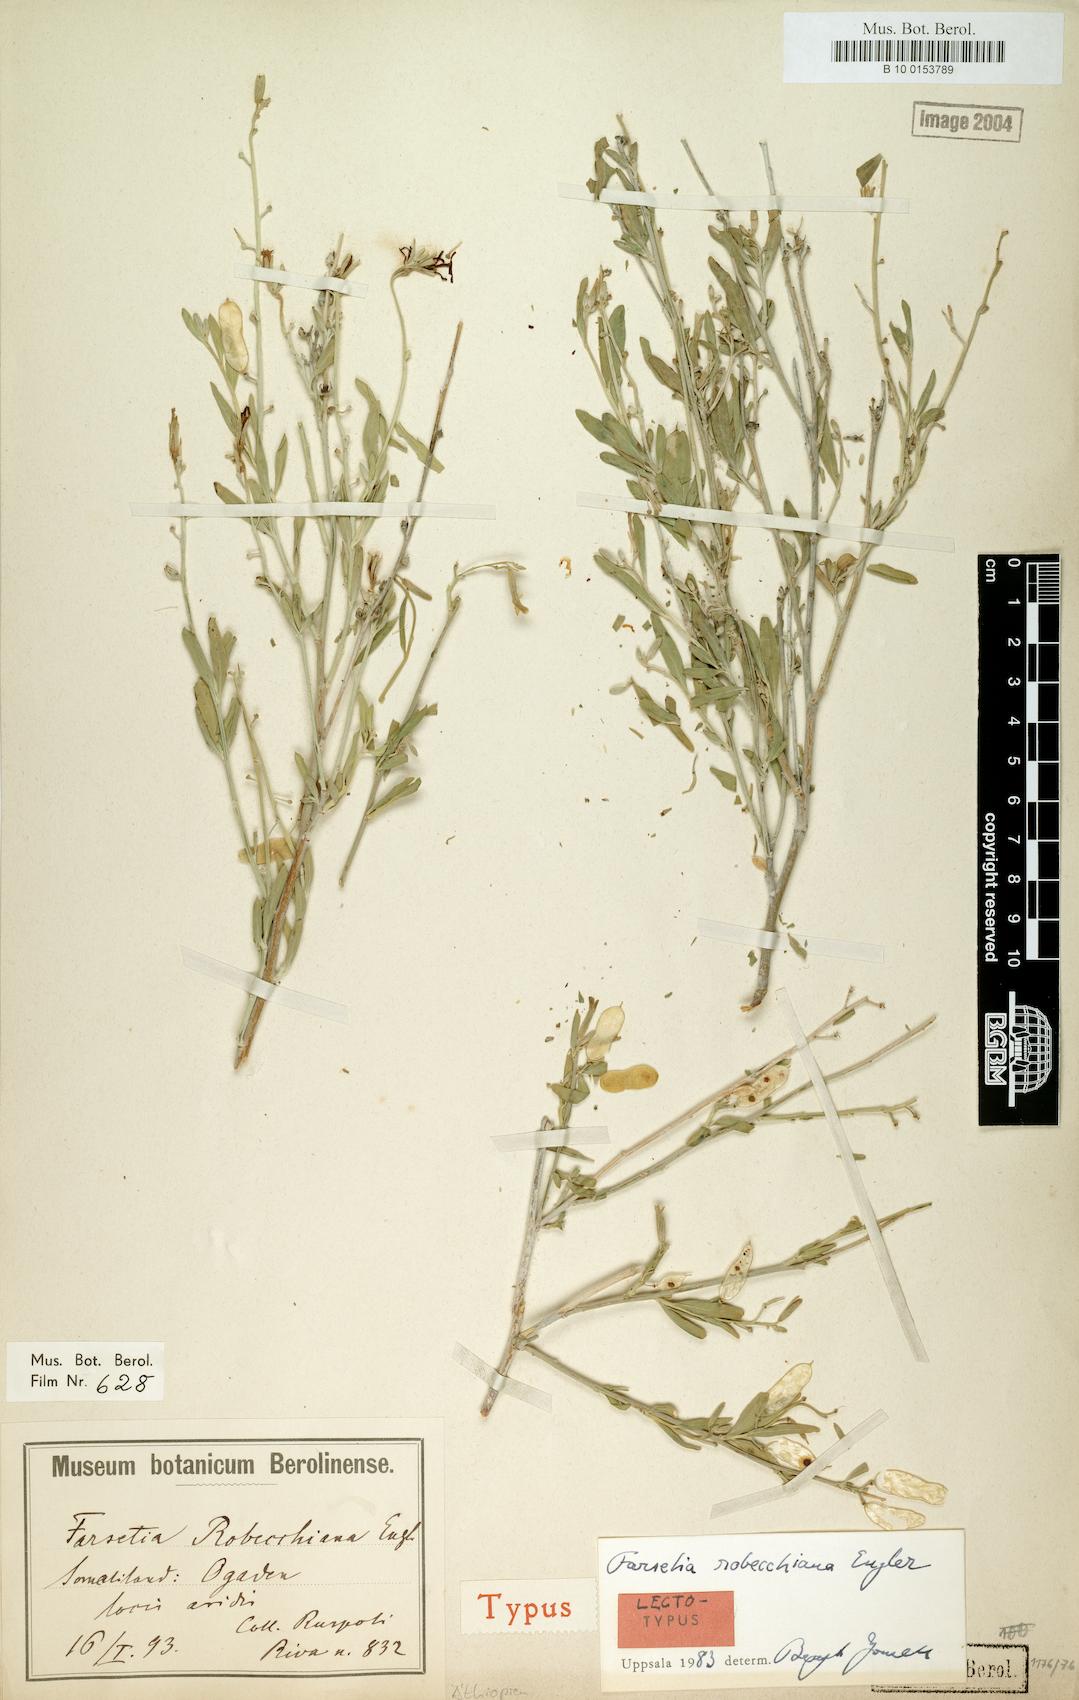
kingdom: Plantae
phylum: Tracheophyta
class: Magnoliopsida
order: Brassicales
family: Brassicaceae
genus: Farsetia
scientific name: Farsetia robecchiana
